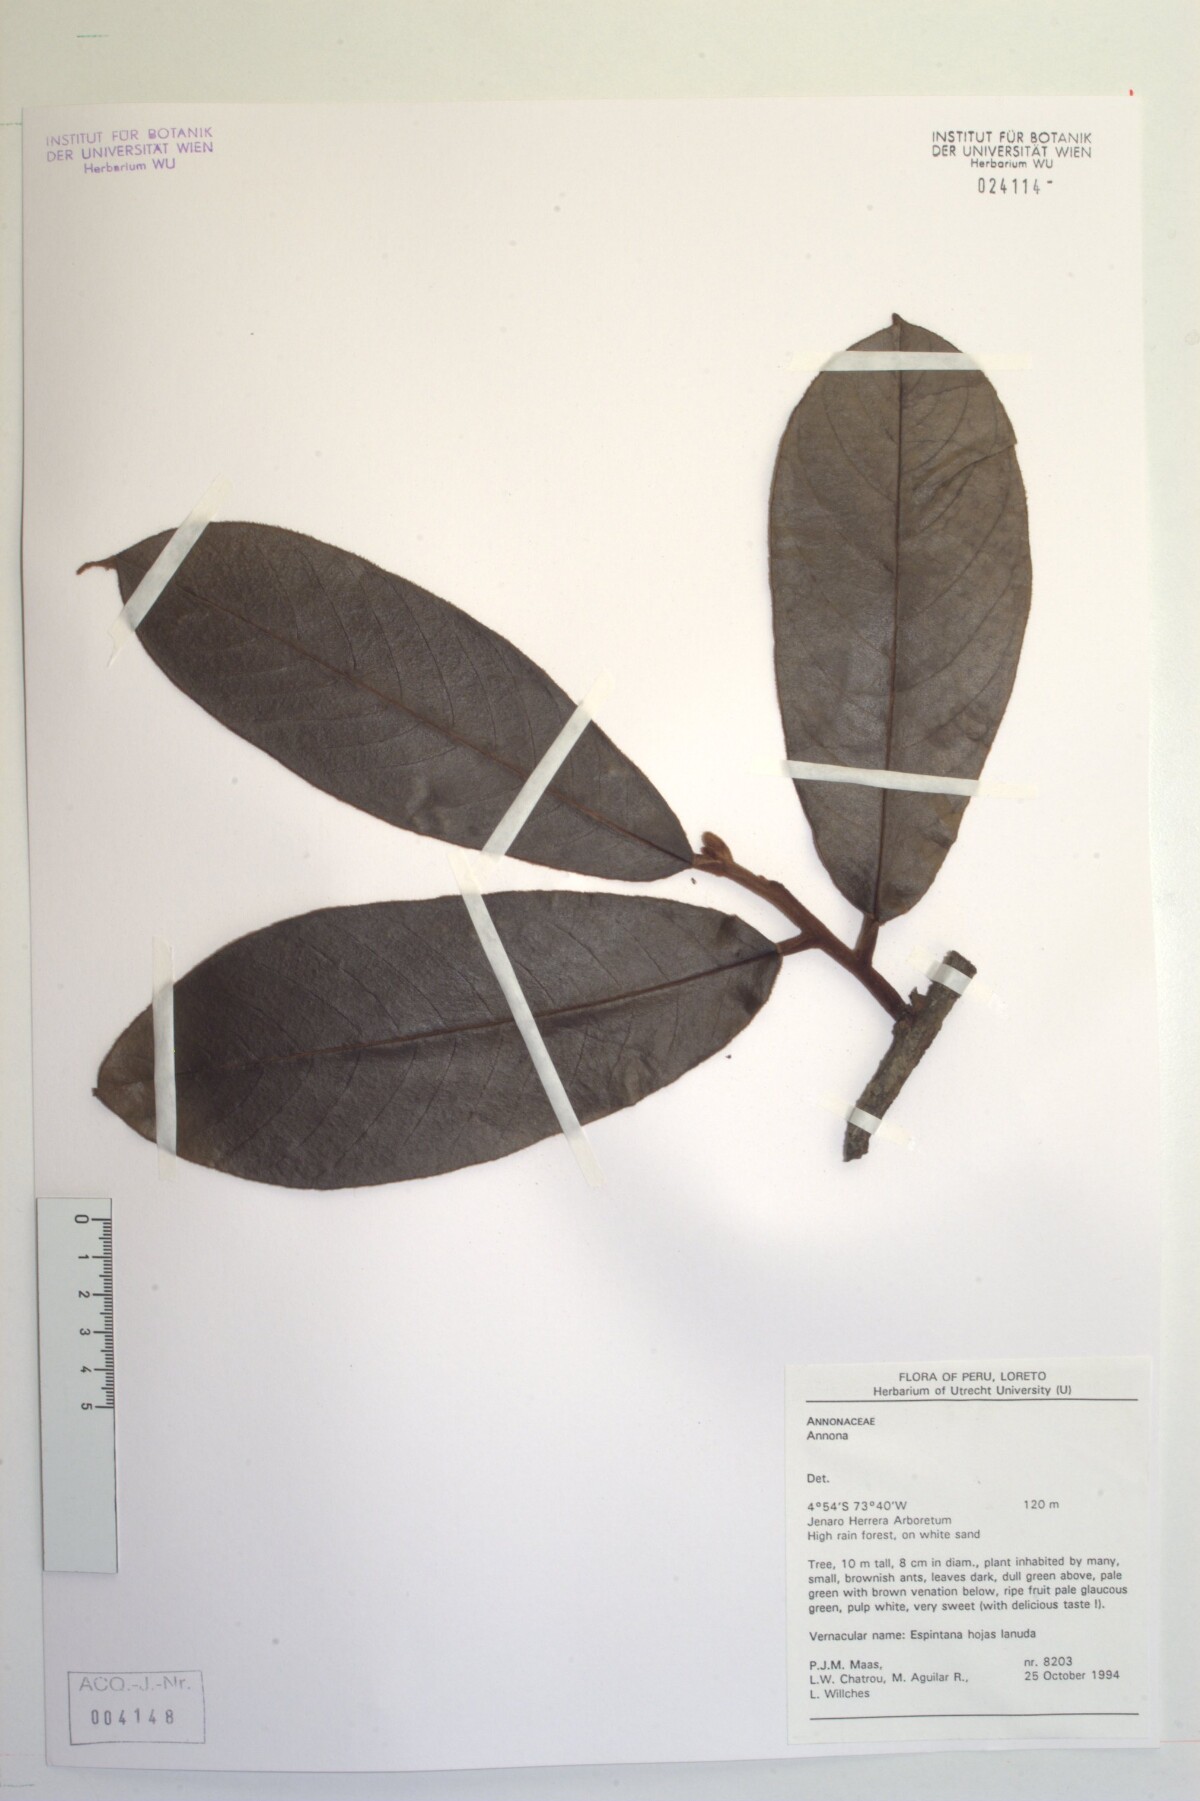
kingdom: Plantae
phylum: Tracheophyta
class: Magnoliopsida
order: Magnoliales
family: Annonaceae
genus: Annona
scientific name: Annona
